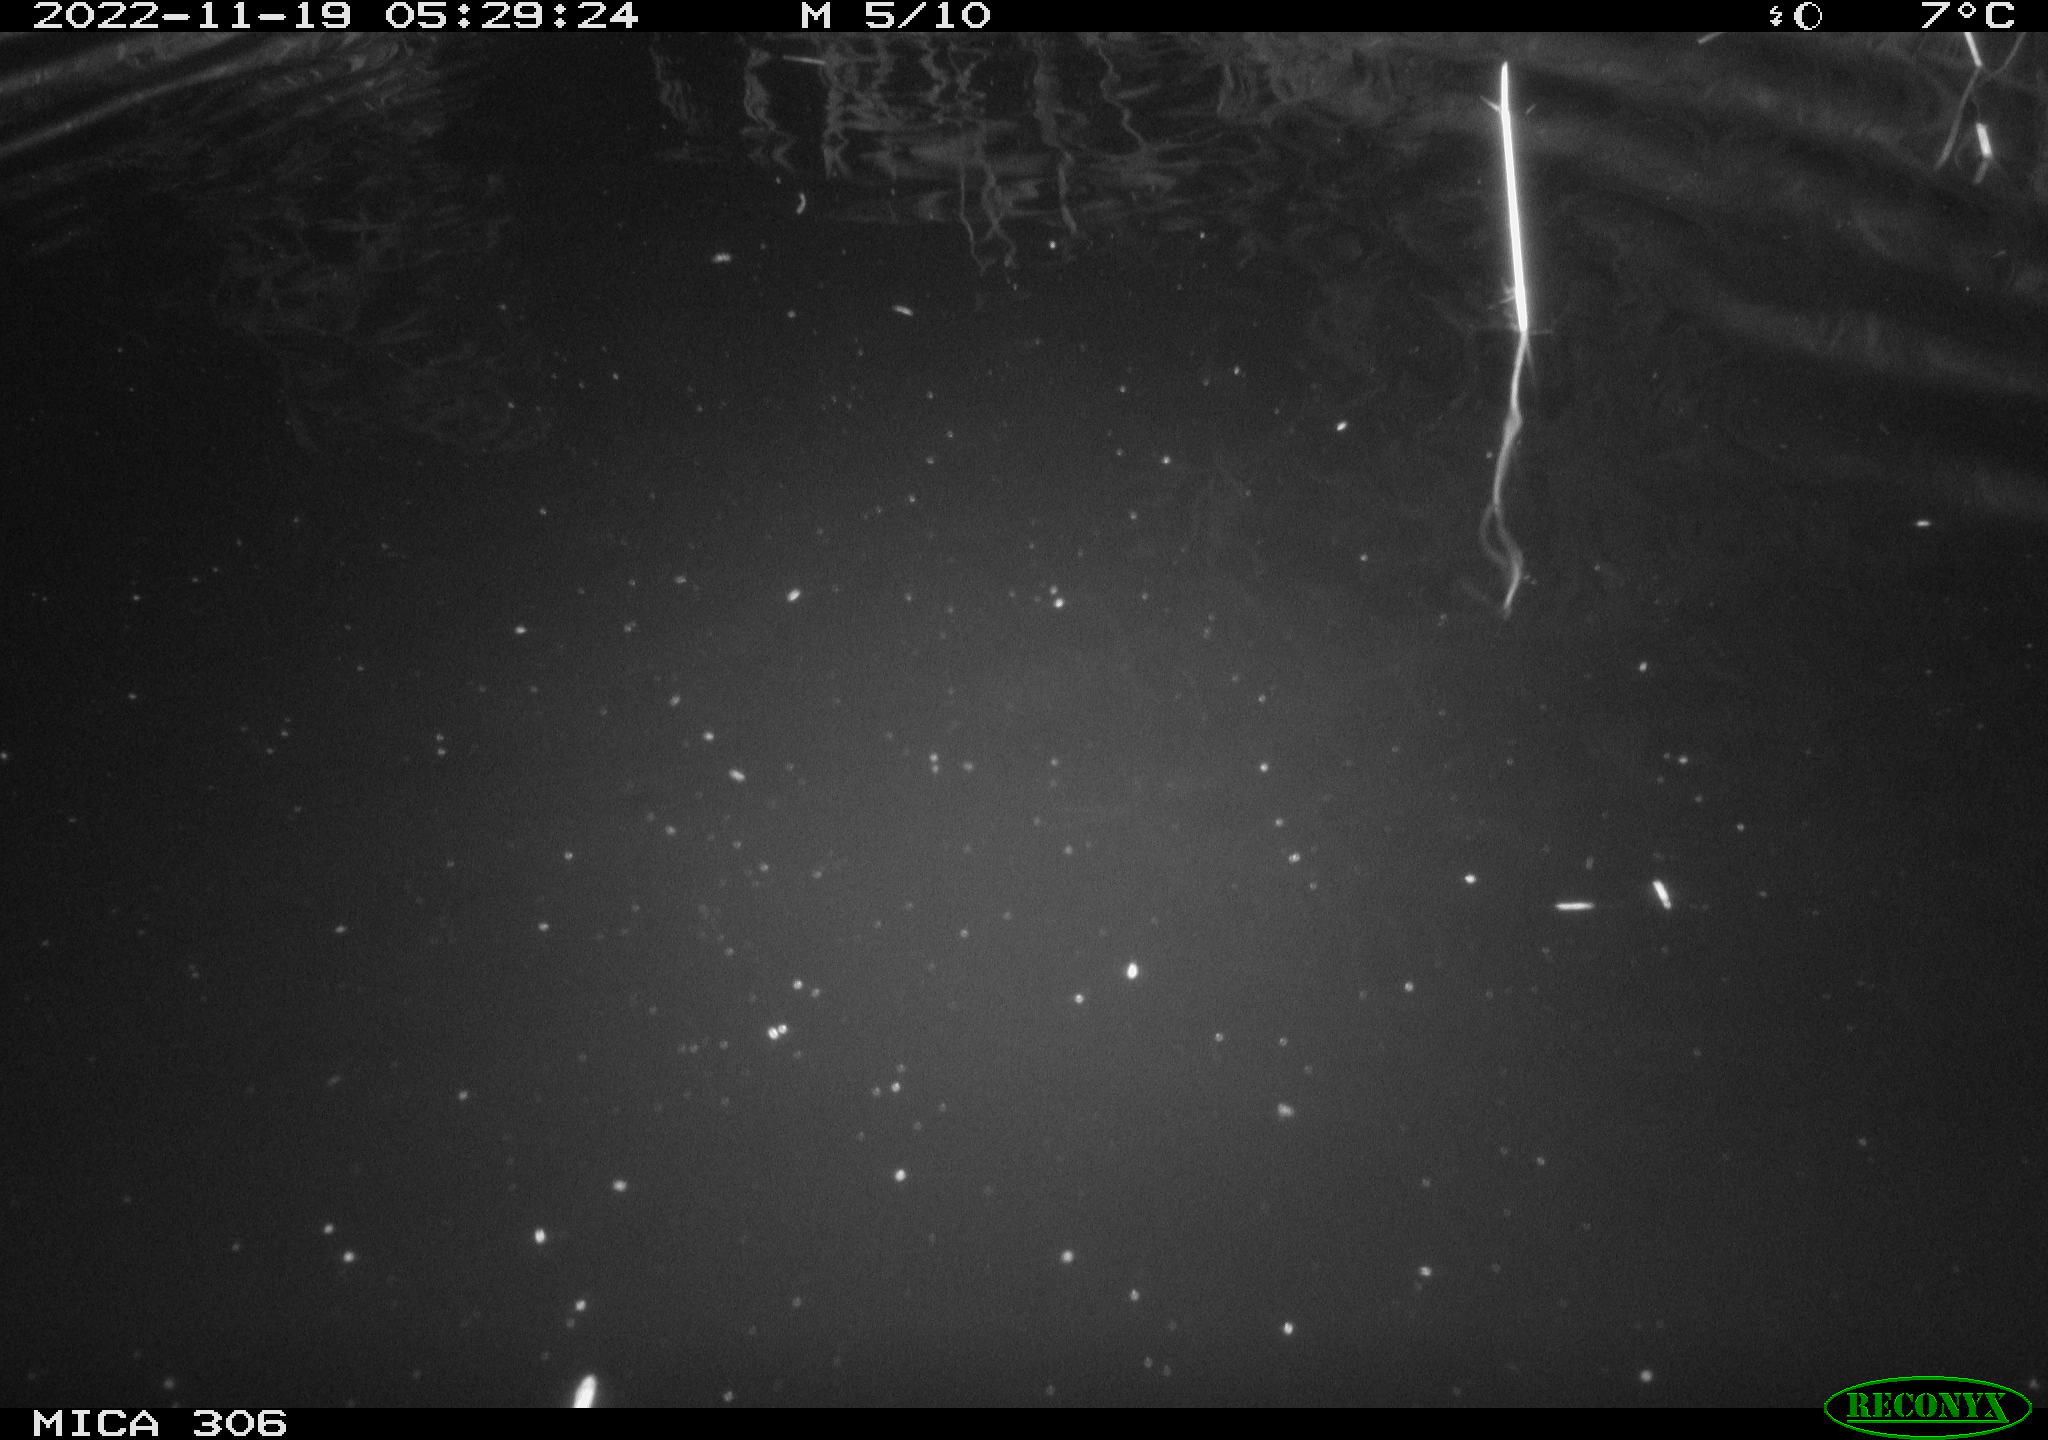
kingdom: Animalia
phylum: Chordata
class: Mammalia
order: Rodentia
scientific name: Rodentia
